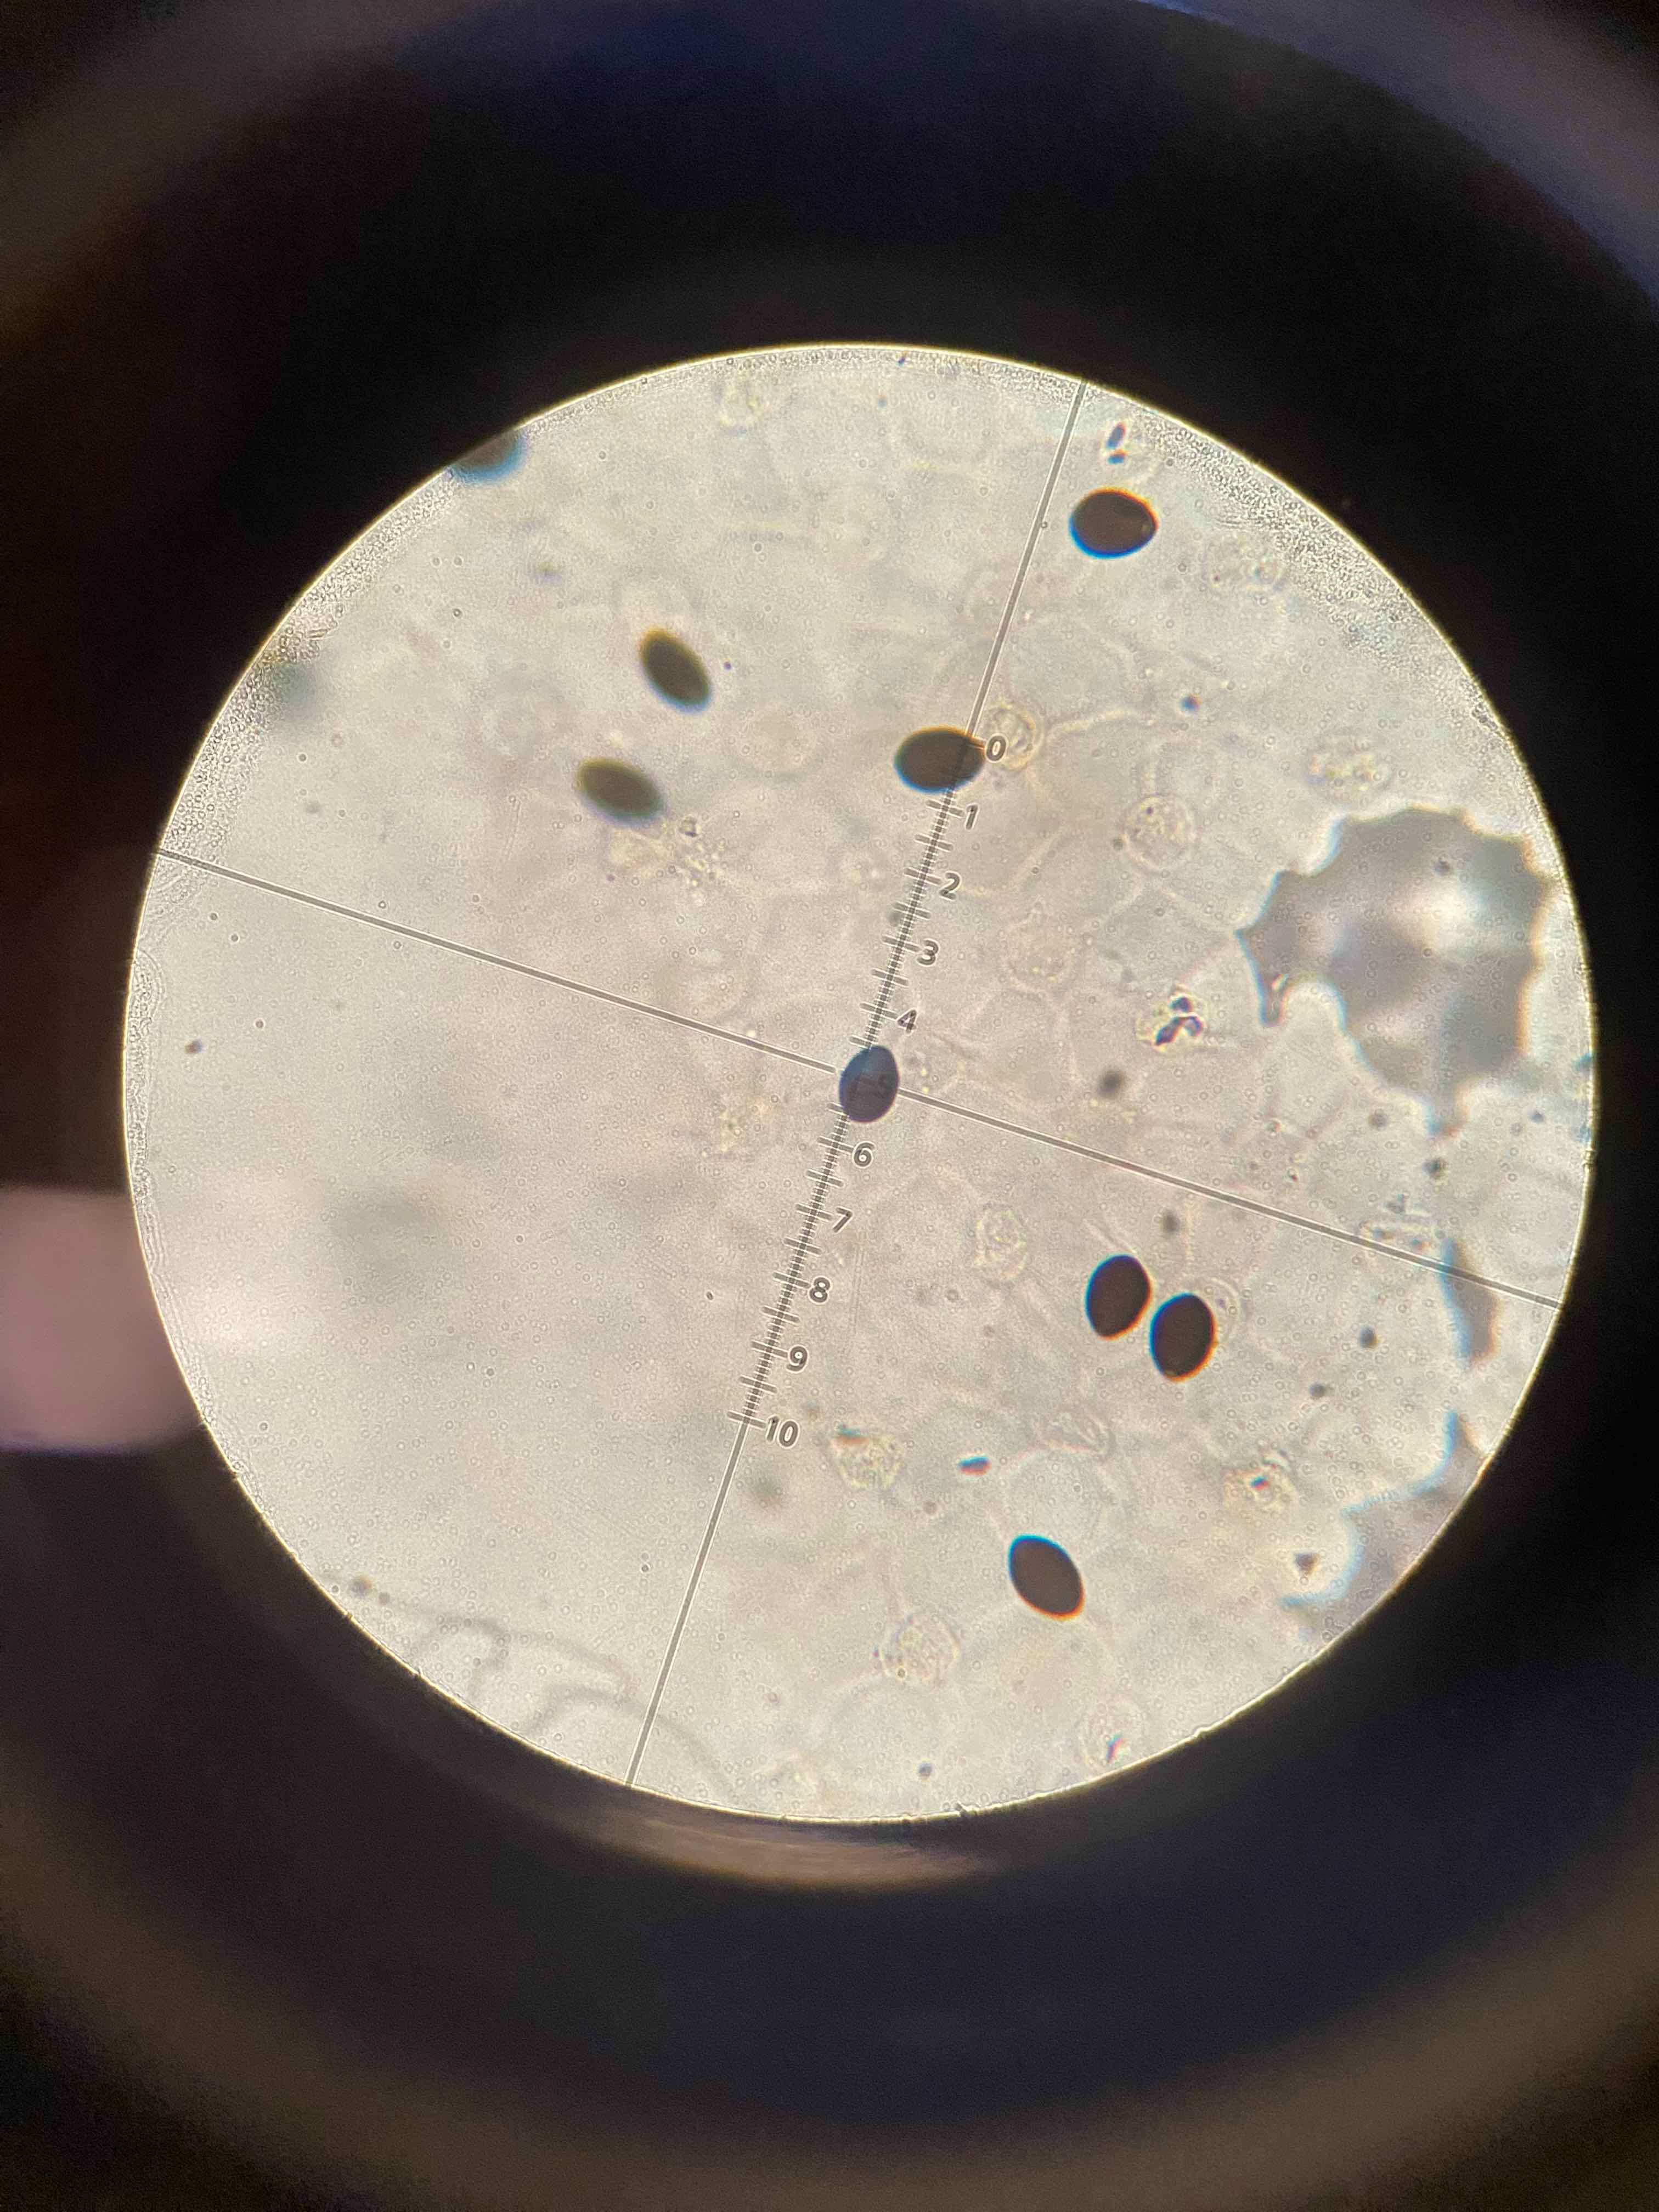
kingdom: Fungi
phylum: Basidiomycota
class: Agaricomycetes
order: Agaricales
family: Psathyrellaceae
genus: Parasola
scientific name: Parasola plicatilis
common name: plæne-hjulhat
